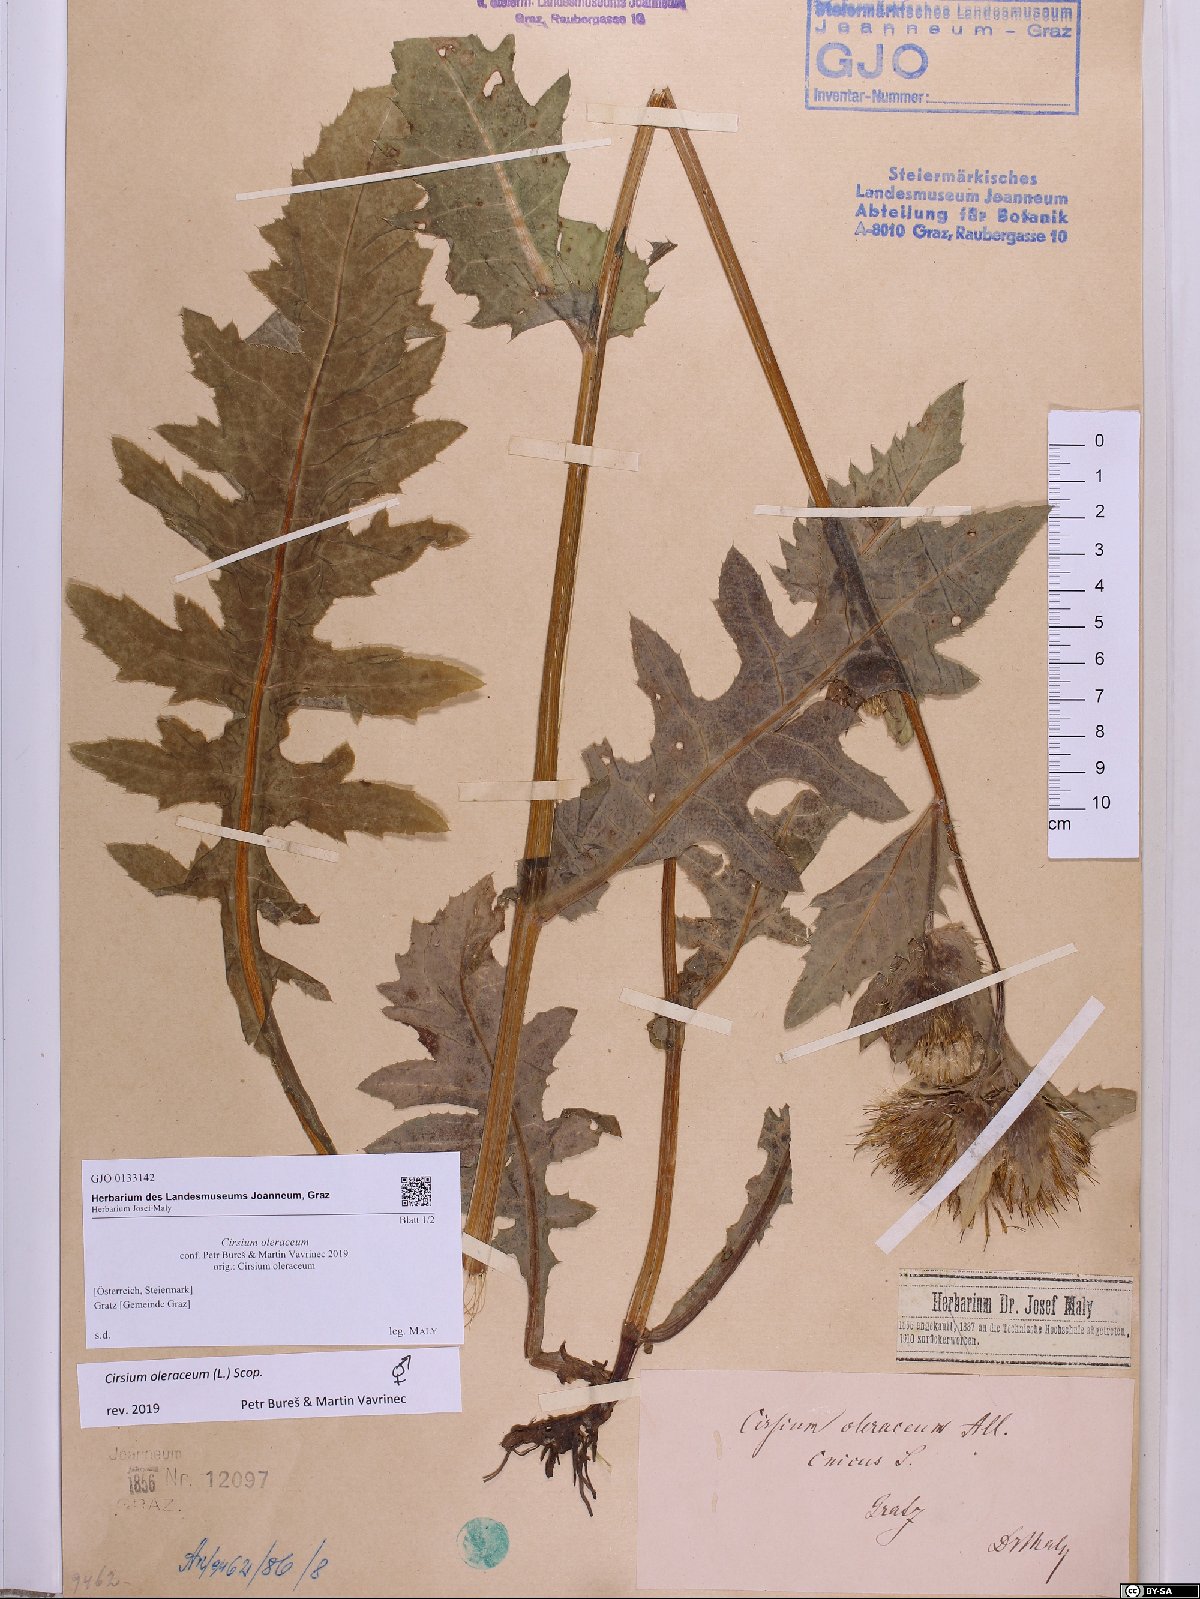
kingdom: Plantae
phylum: Tracheophyta
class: Magnoliopsida
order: Asterales
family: Asteraceae
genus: Cirsium
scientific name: Cirsium oleraceum
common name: Cabbage thistle
